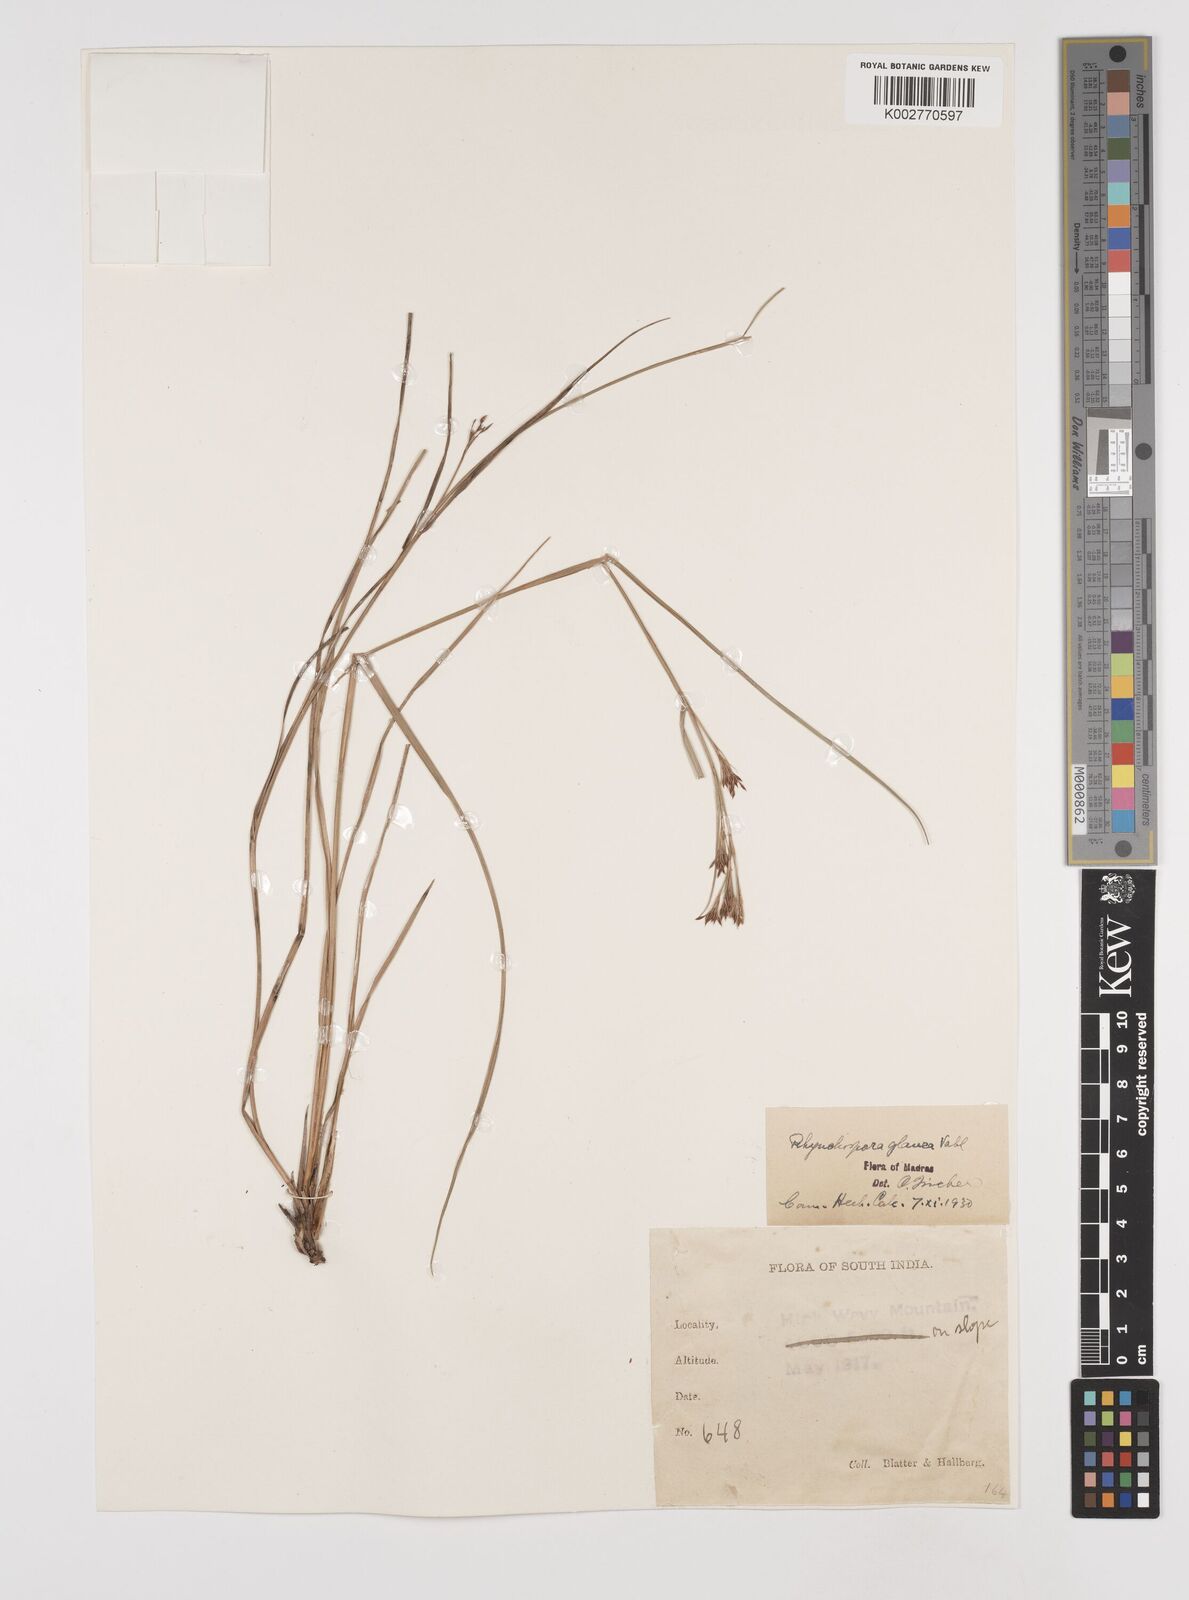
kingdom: Plantae
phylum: Tracheophyta
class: Liliopsida
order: Poales
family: Cyperaceae
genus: Rhynchospora
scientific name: Rhynchospora rugosa
